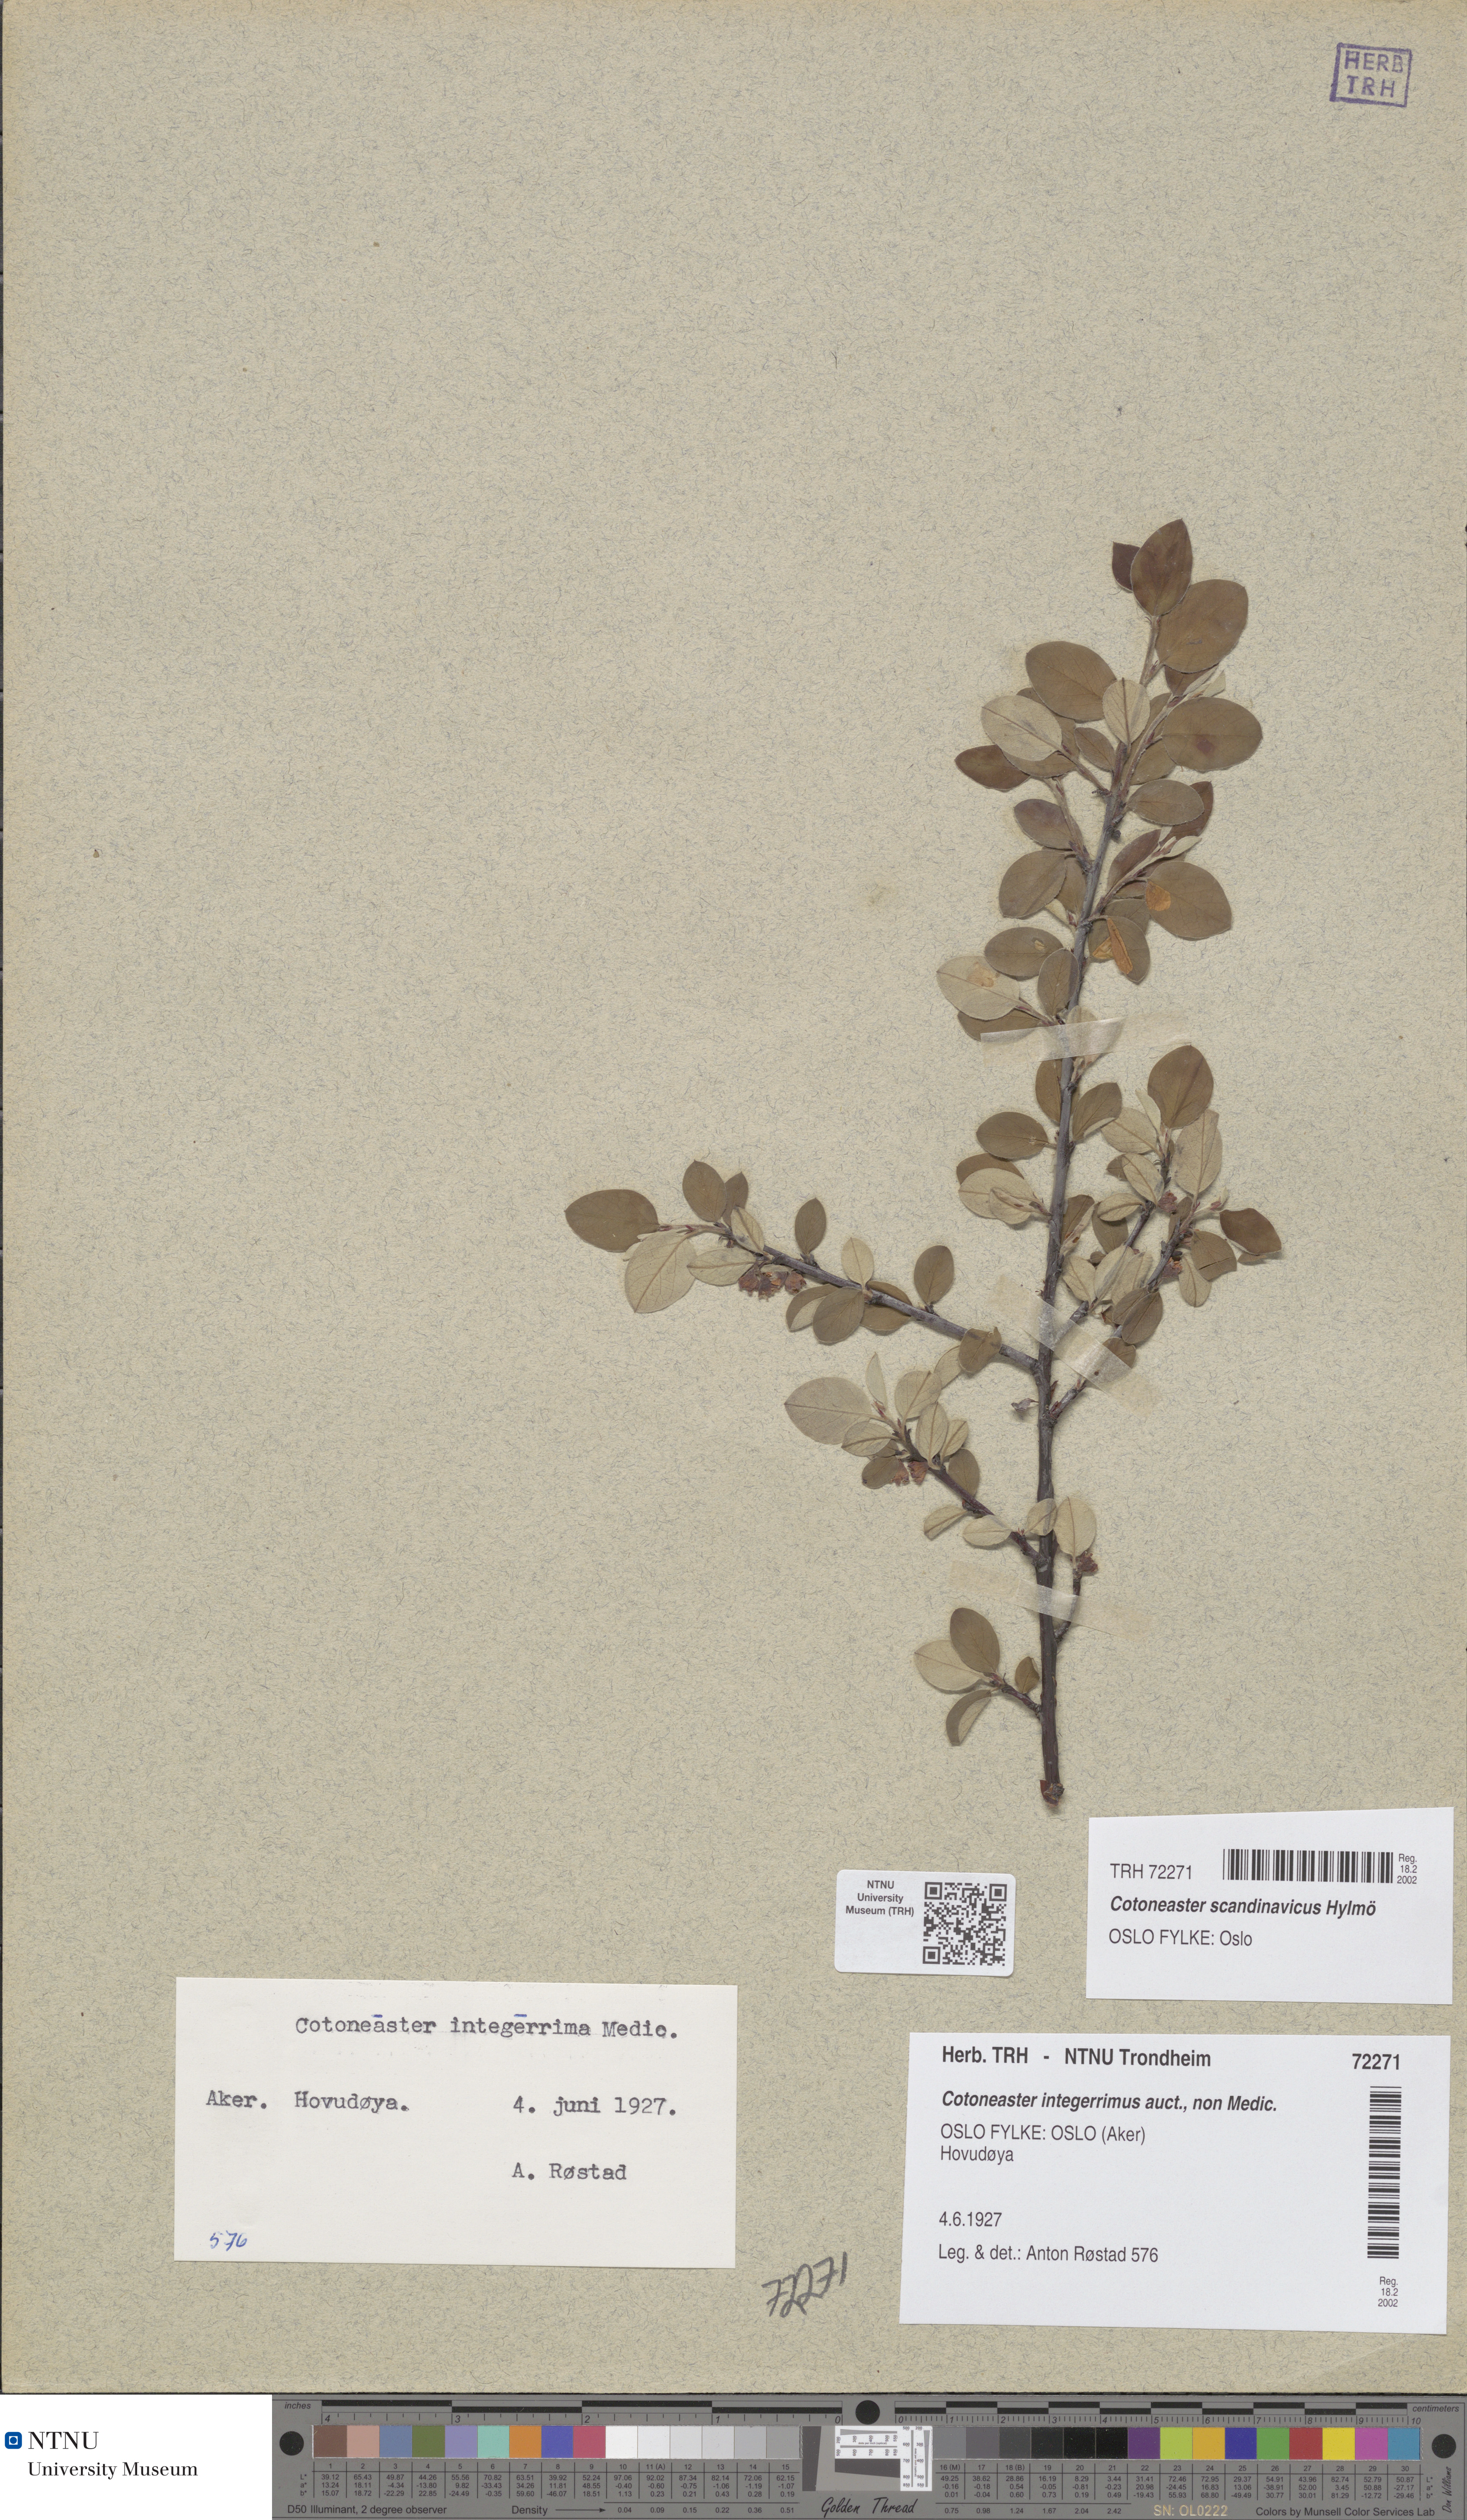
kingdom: Plantae
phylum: Tracheophyta
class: Magnoliopsida
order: Rosales
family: Rosaceae
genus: Cotoneaster
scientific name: Cotoneaster integerrimus
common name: Wild cotoneaster
